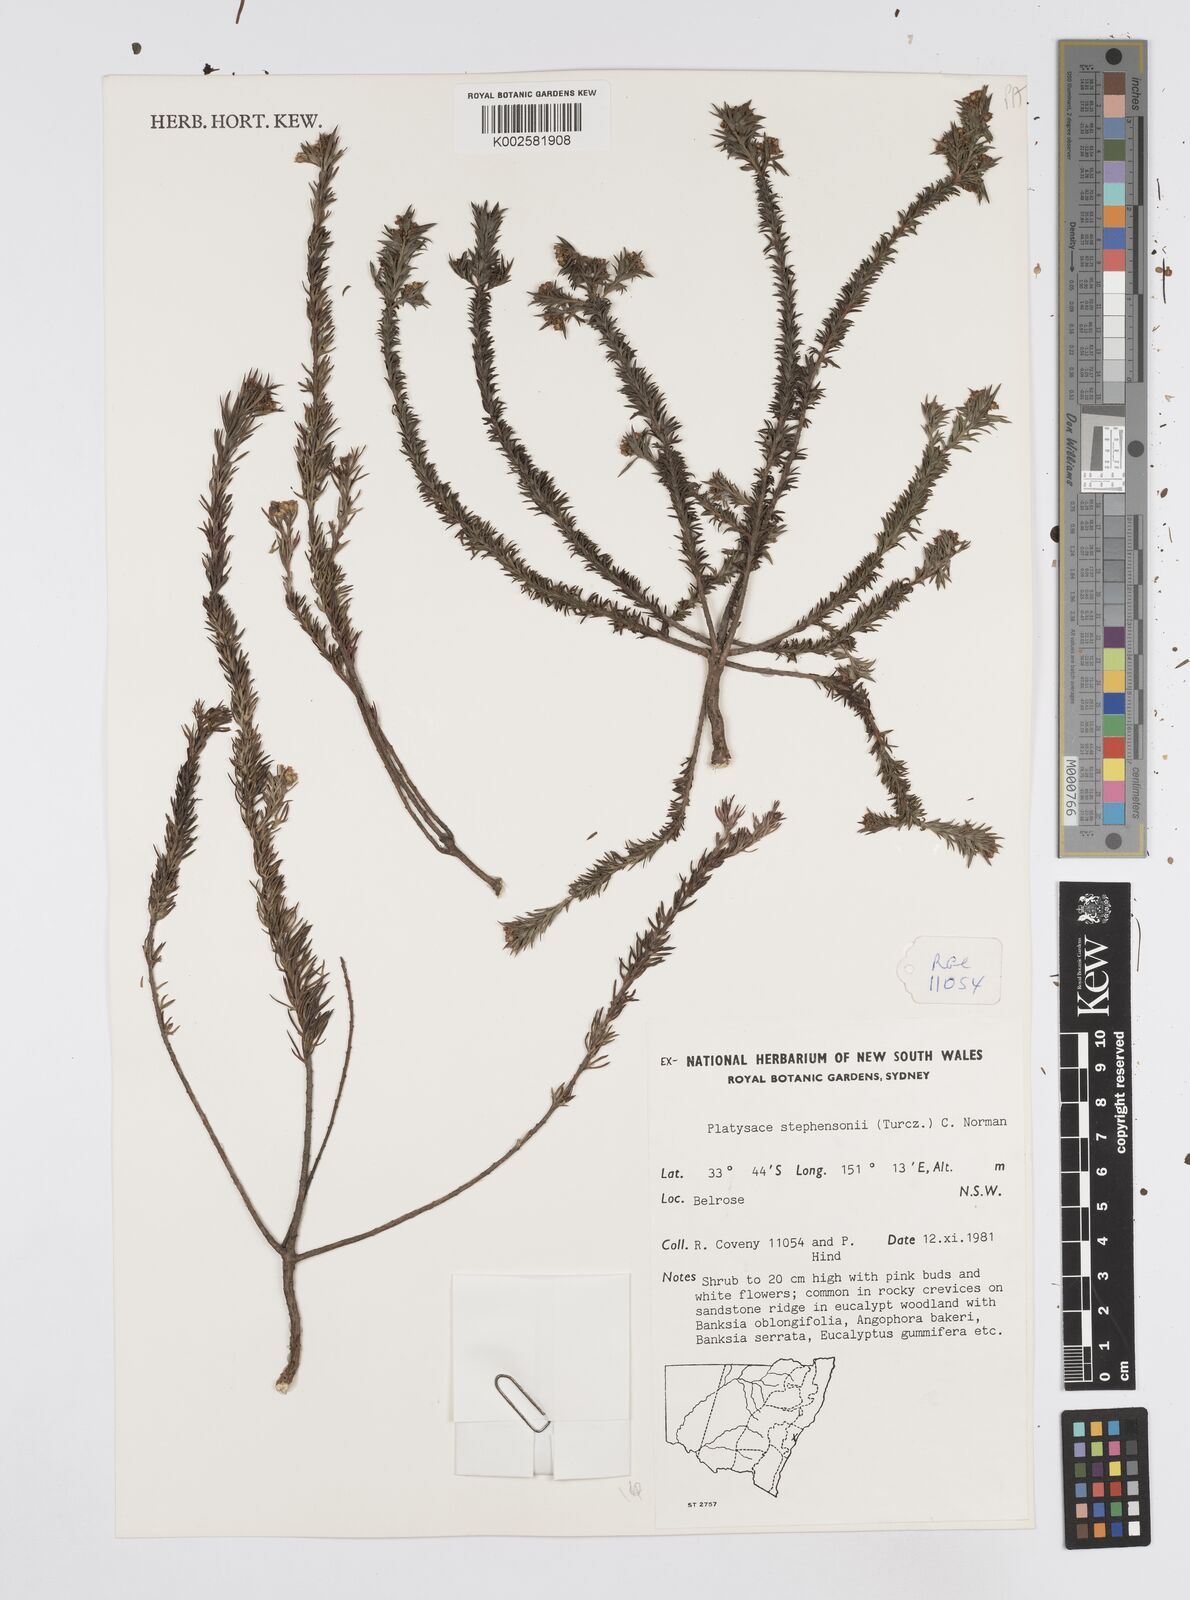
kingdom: Plantae
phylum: Tracheophyta
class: Magnoliopsida
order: Apiales
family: Apiaceae
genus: Platysace
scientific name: Platysace stephensonii
